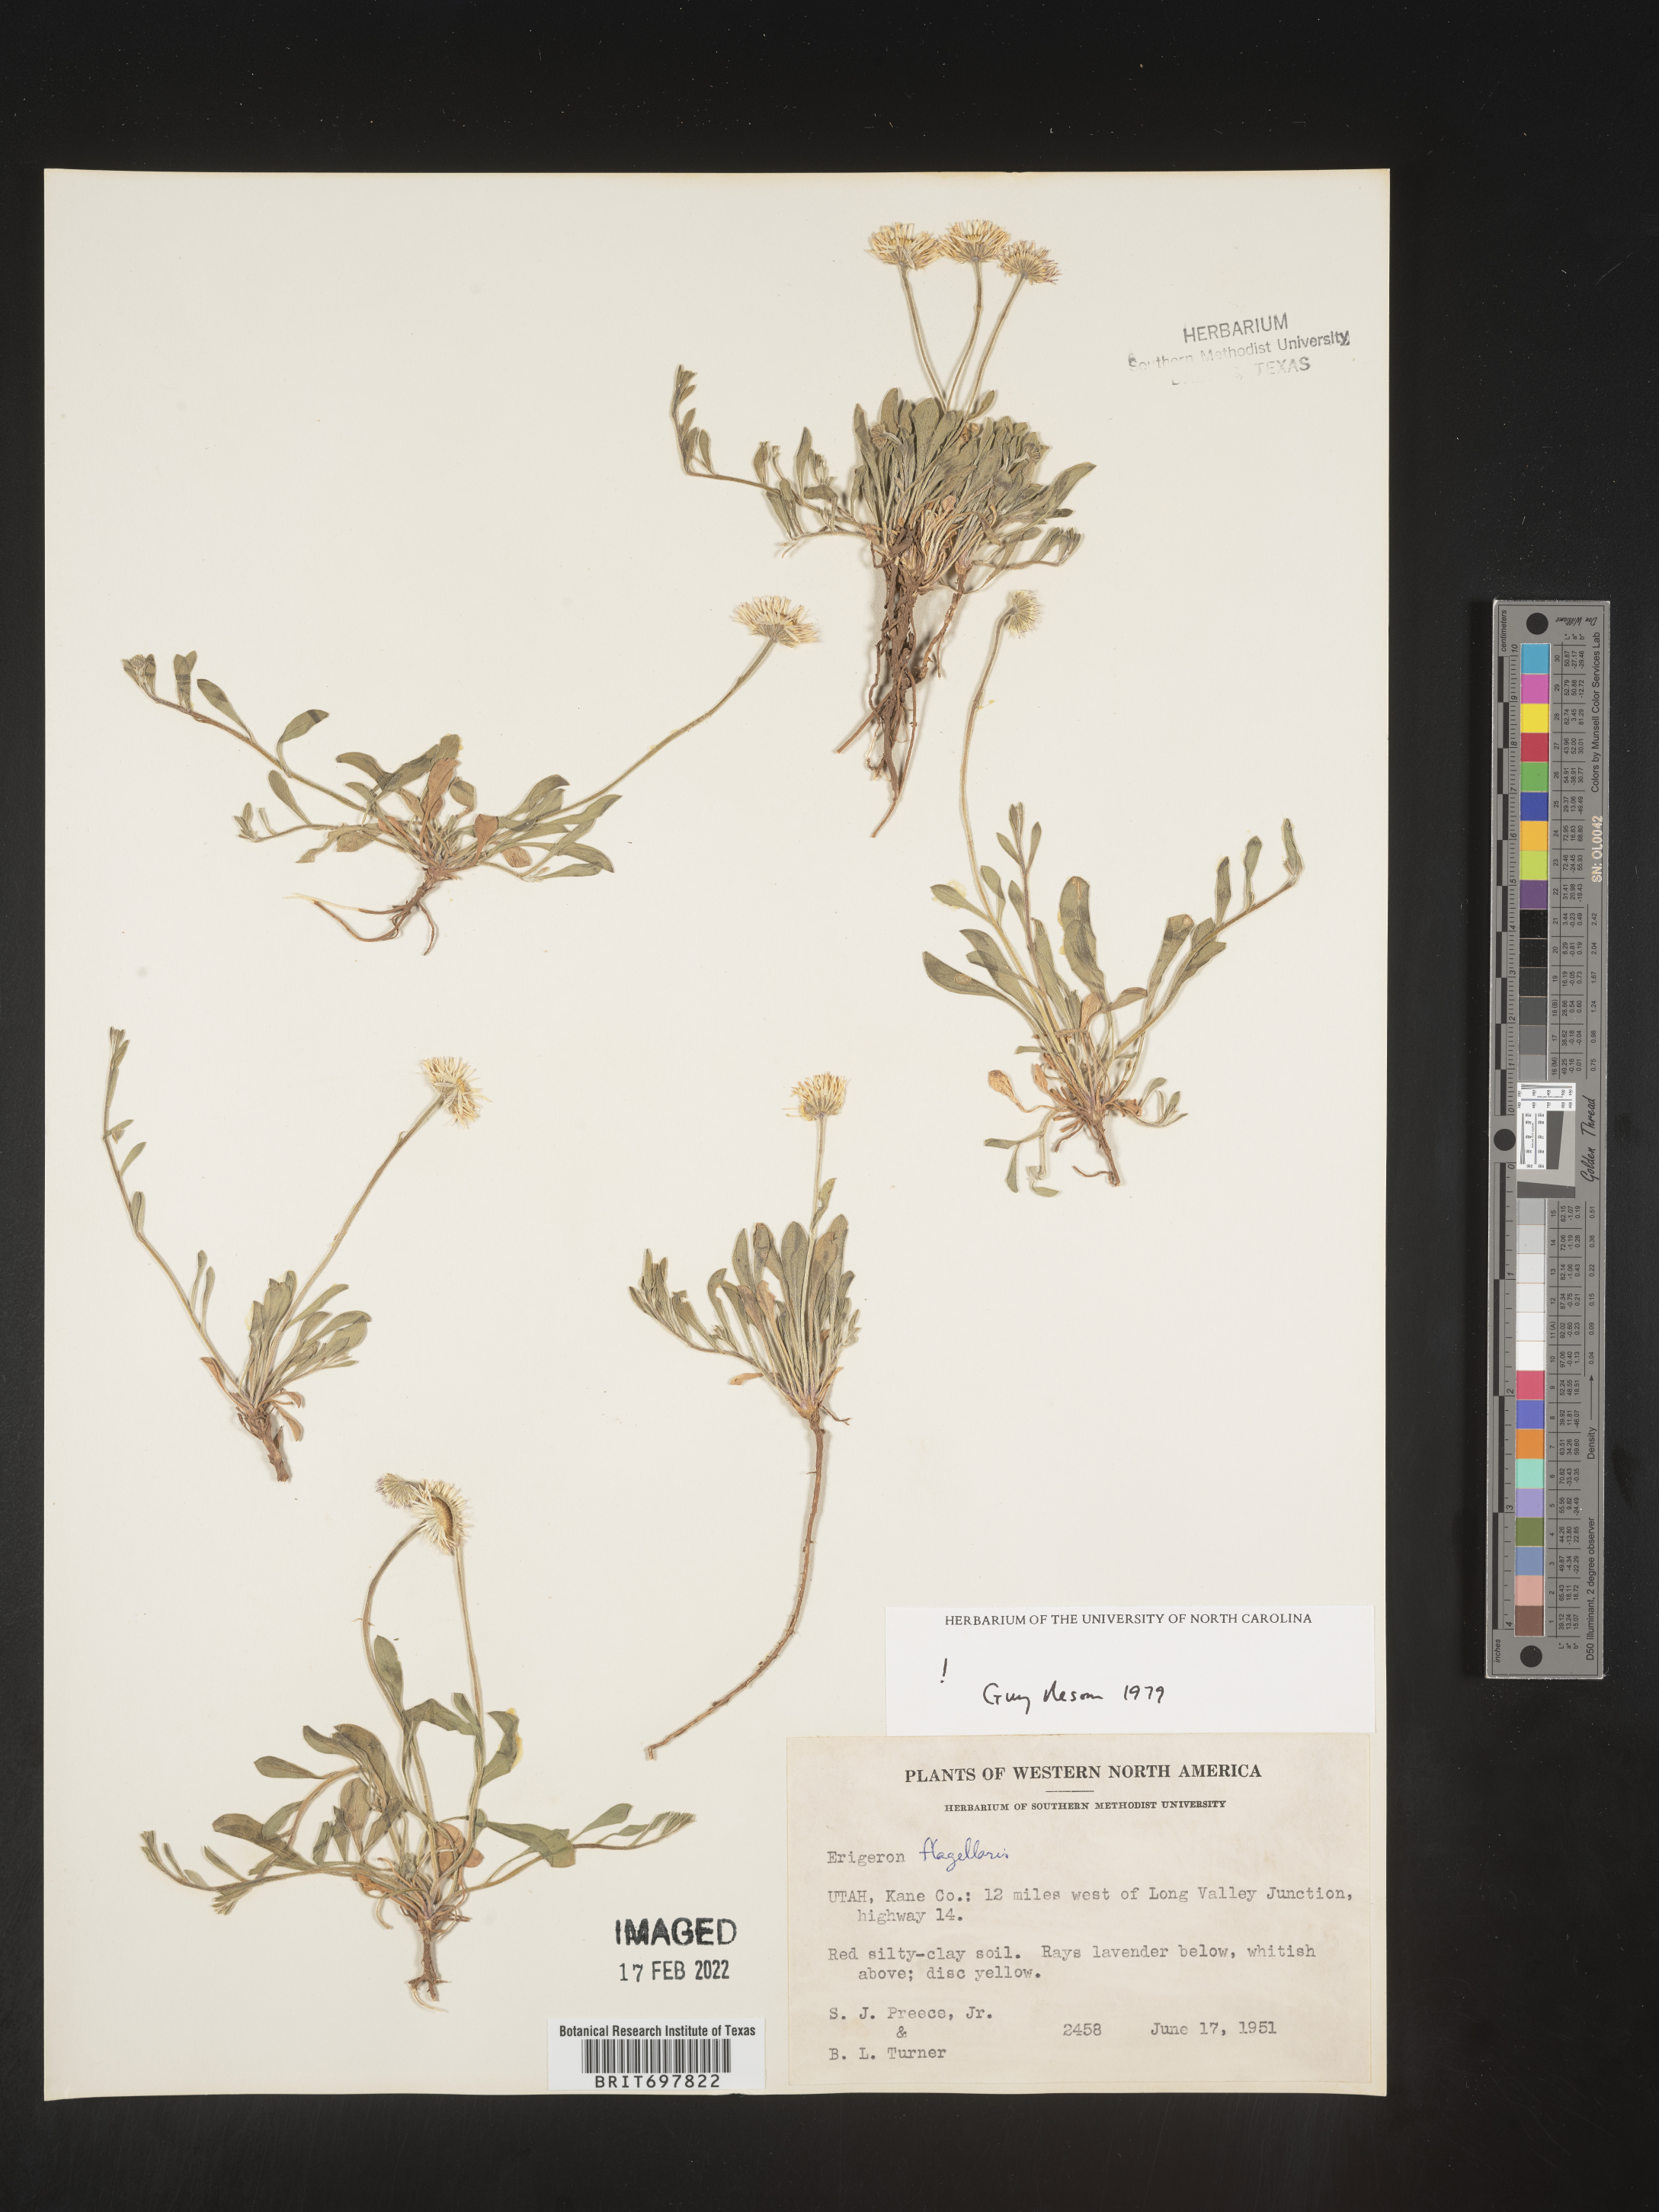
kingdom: Plantae
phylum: Tracheophyta
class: Magnoliopsida
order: Asterales
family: Asteraceae
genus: Erigeron
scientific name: Erigeron flagellaris
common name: Running fleabane
